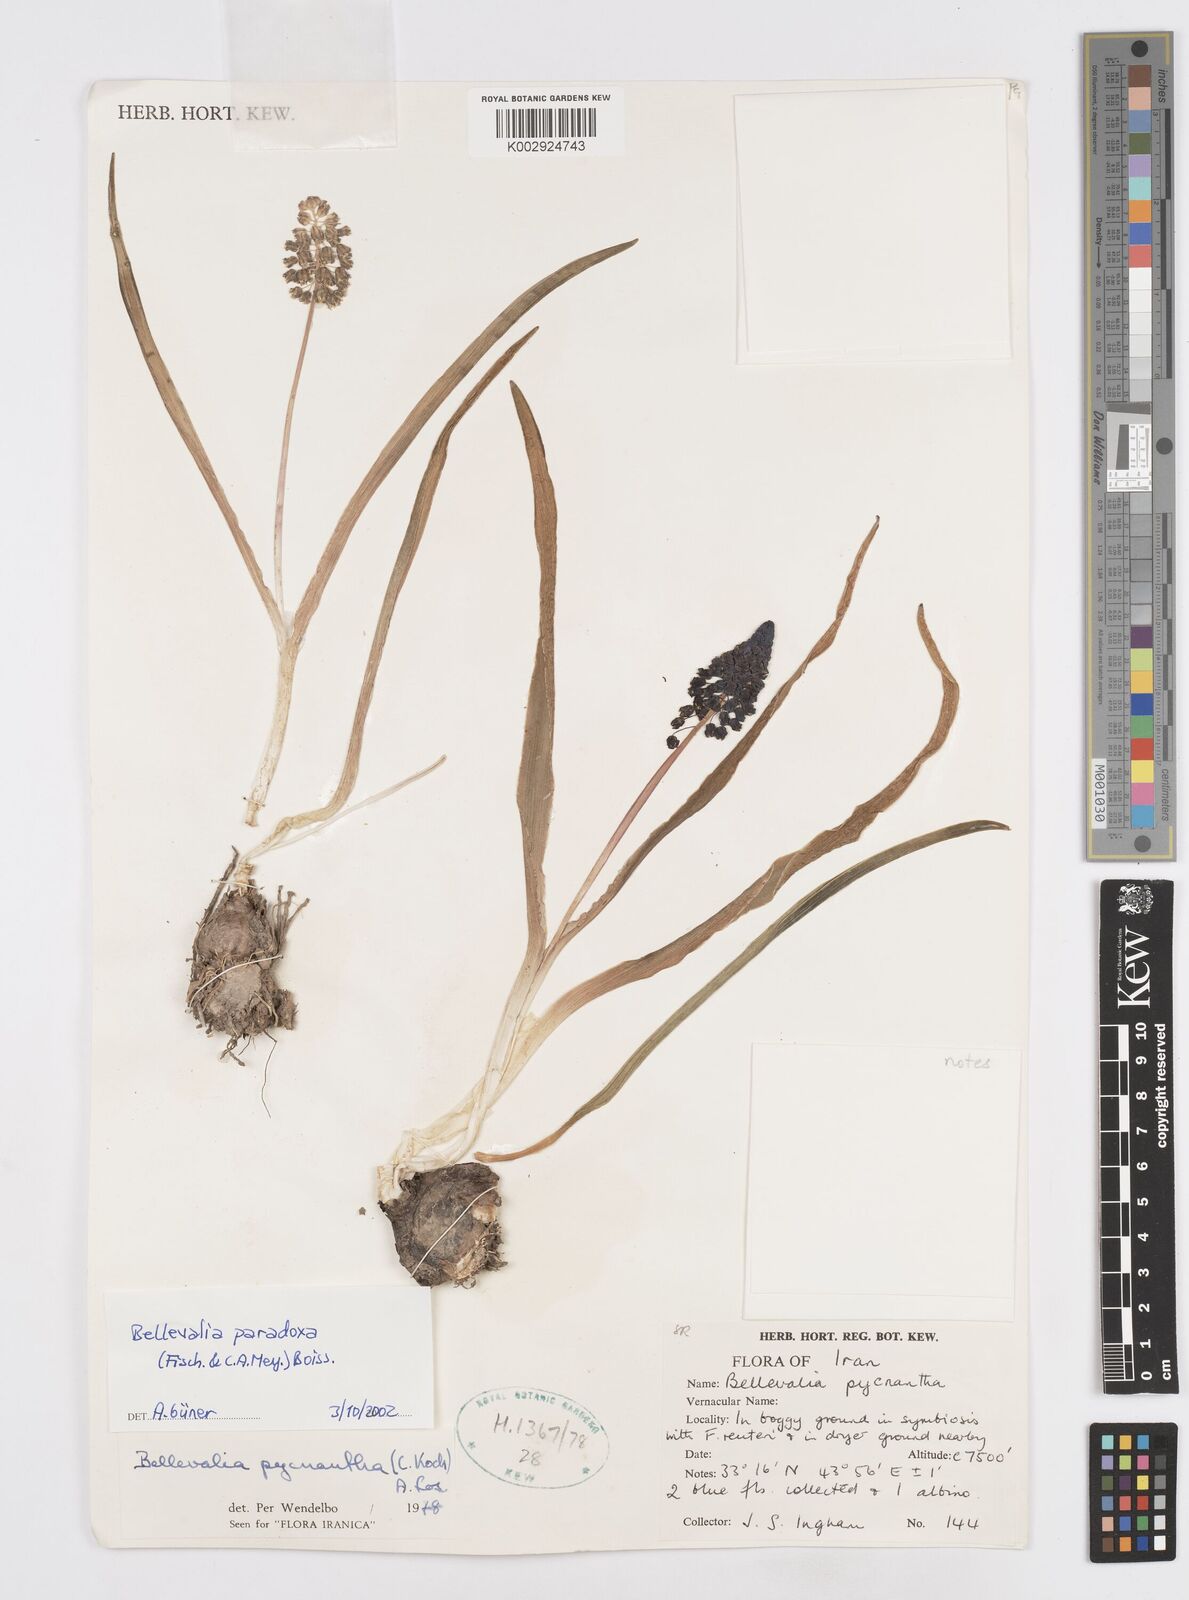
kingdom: Plantae
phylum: Tracheophyta
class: Liliopsida
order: Asparagales
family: Asparagaceae
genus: Bellevalia
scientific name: Bellevalia paradoxa
